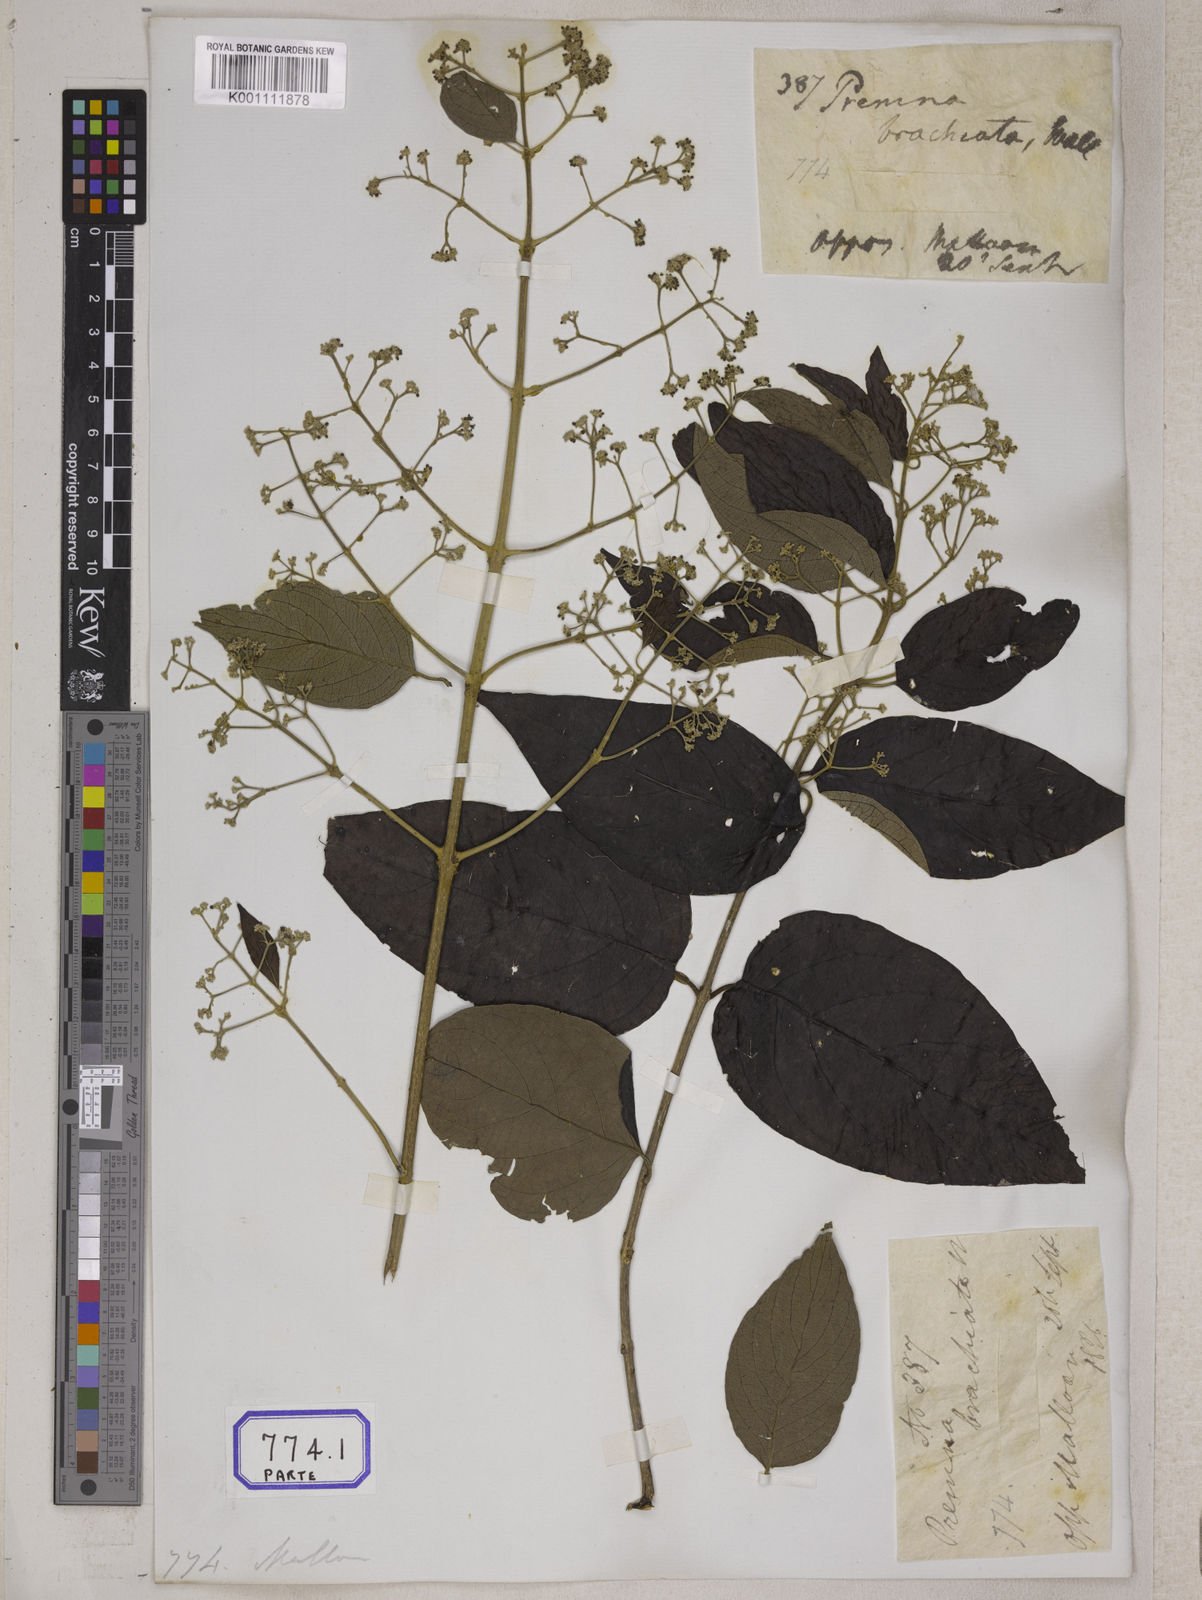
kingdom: Plantae
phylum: Tracheophyta
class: Magnoliopsida
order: Lamiales
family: Lamiaceae
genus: Hymenopyramis
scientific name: Hymenopyramis
